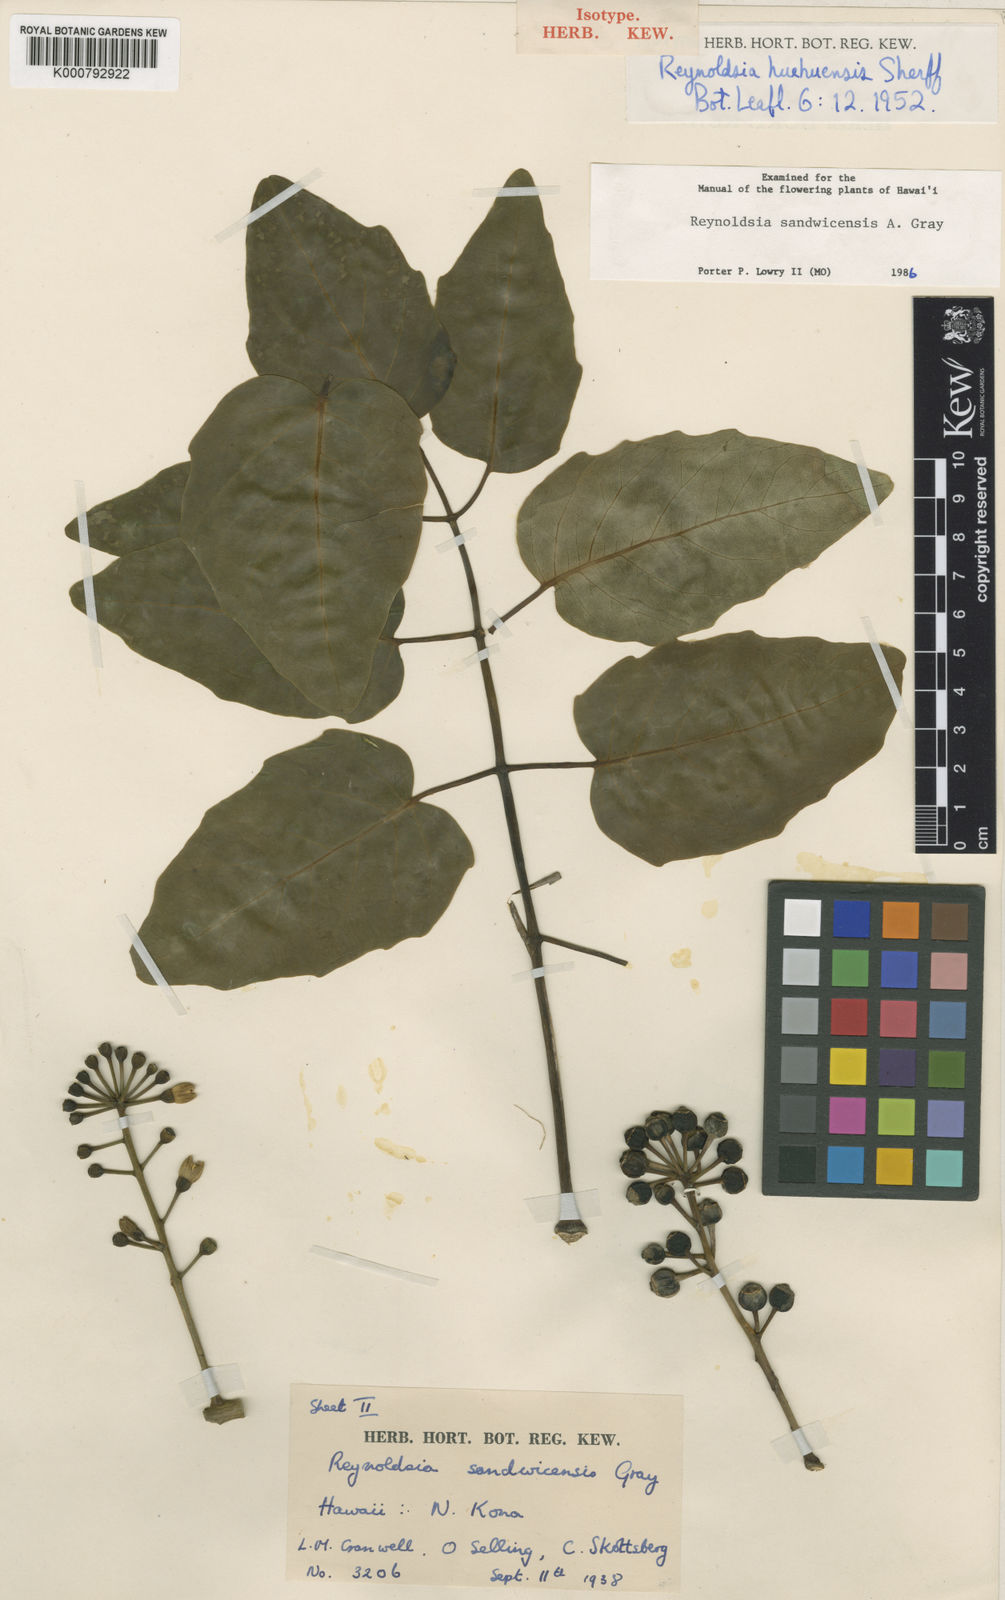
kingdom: Plantae
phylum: Tracheophyta
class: Magnoliopsida
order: Apiales
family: Araliaceae
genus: Polyscias
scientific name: Polyscias sandwicensis
